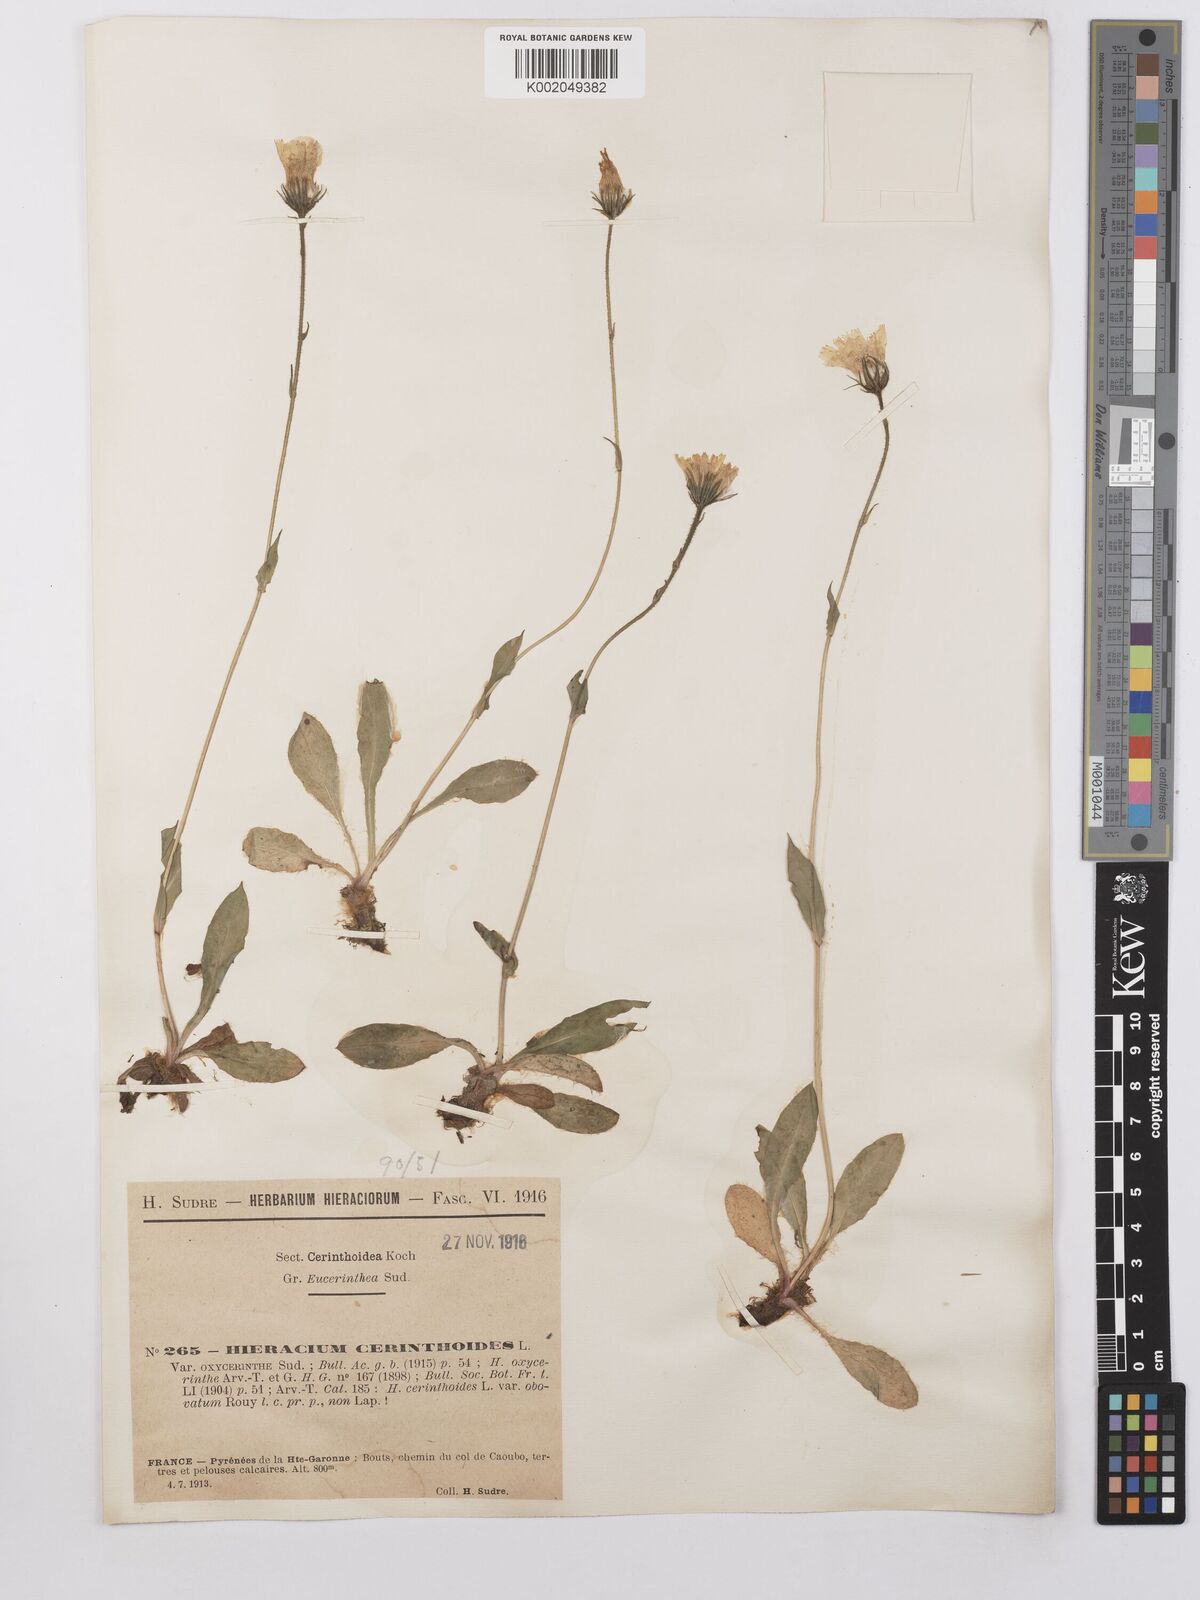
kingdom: Plantae
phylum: Tracheophyta
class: Magnoliopsida
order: Asterales
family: Asteraceae
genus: Hieracium
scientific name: Hieracium cerinthoides
